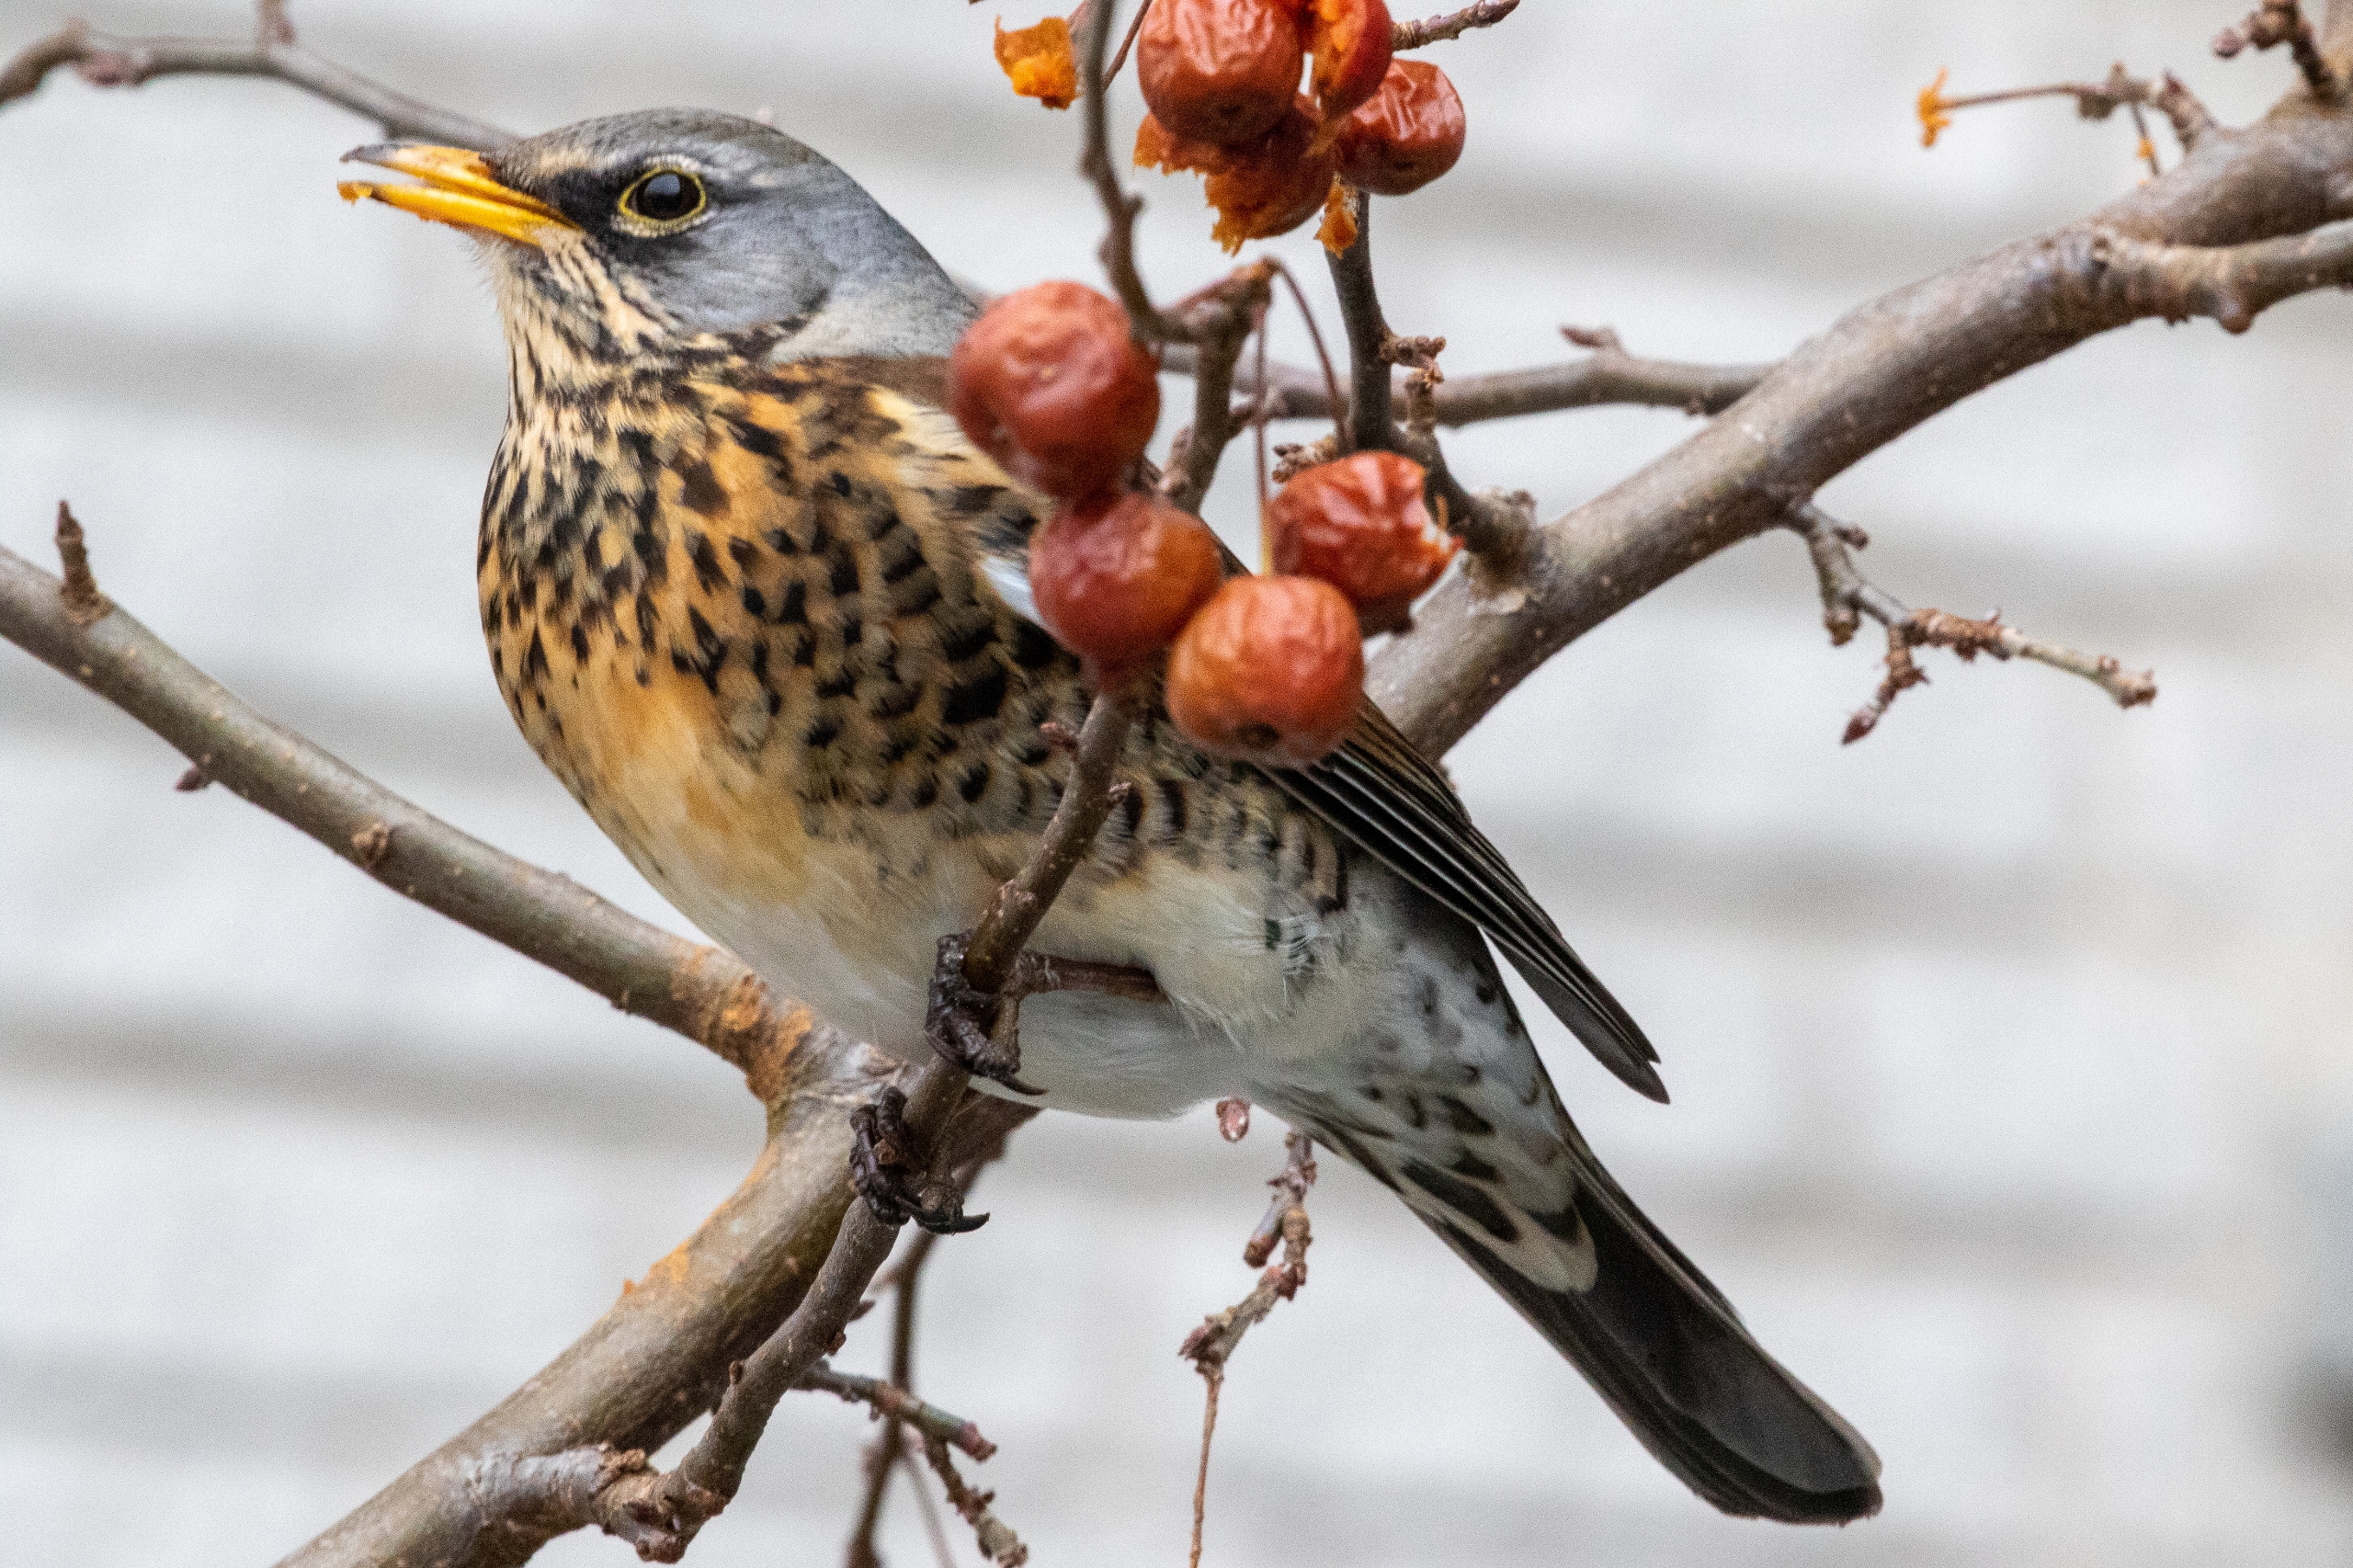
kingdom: Animalia
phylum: Chordata
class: Aves
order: Passeriformes
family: Turdidae
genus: Turdus
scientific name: Turdus pilaris
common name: Sjagger
